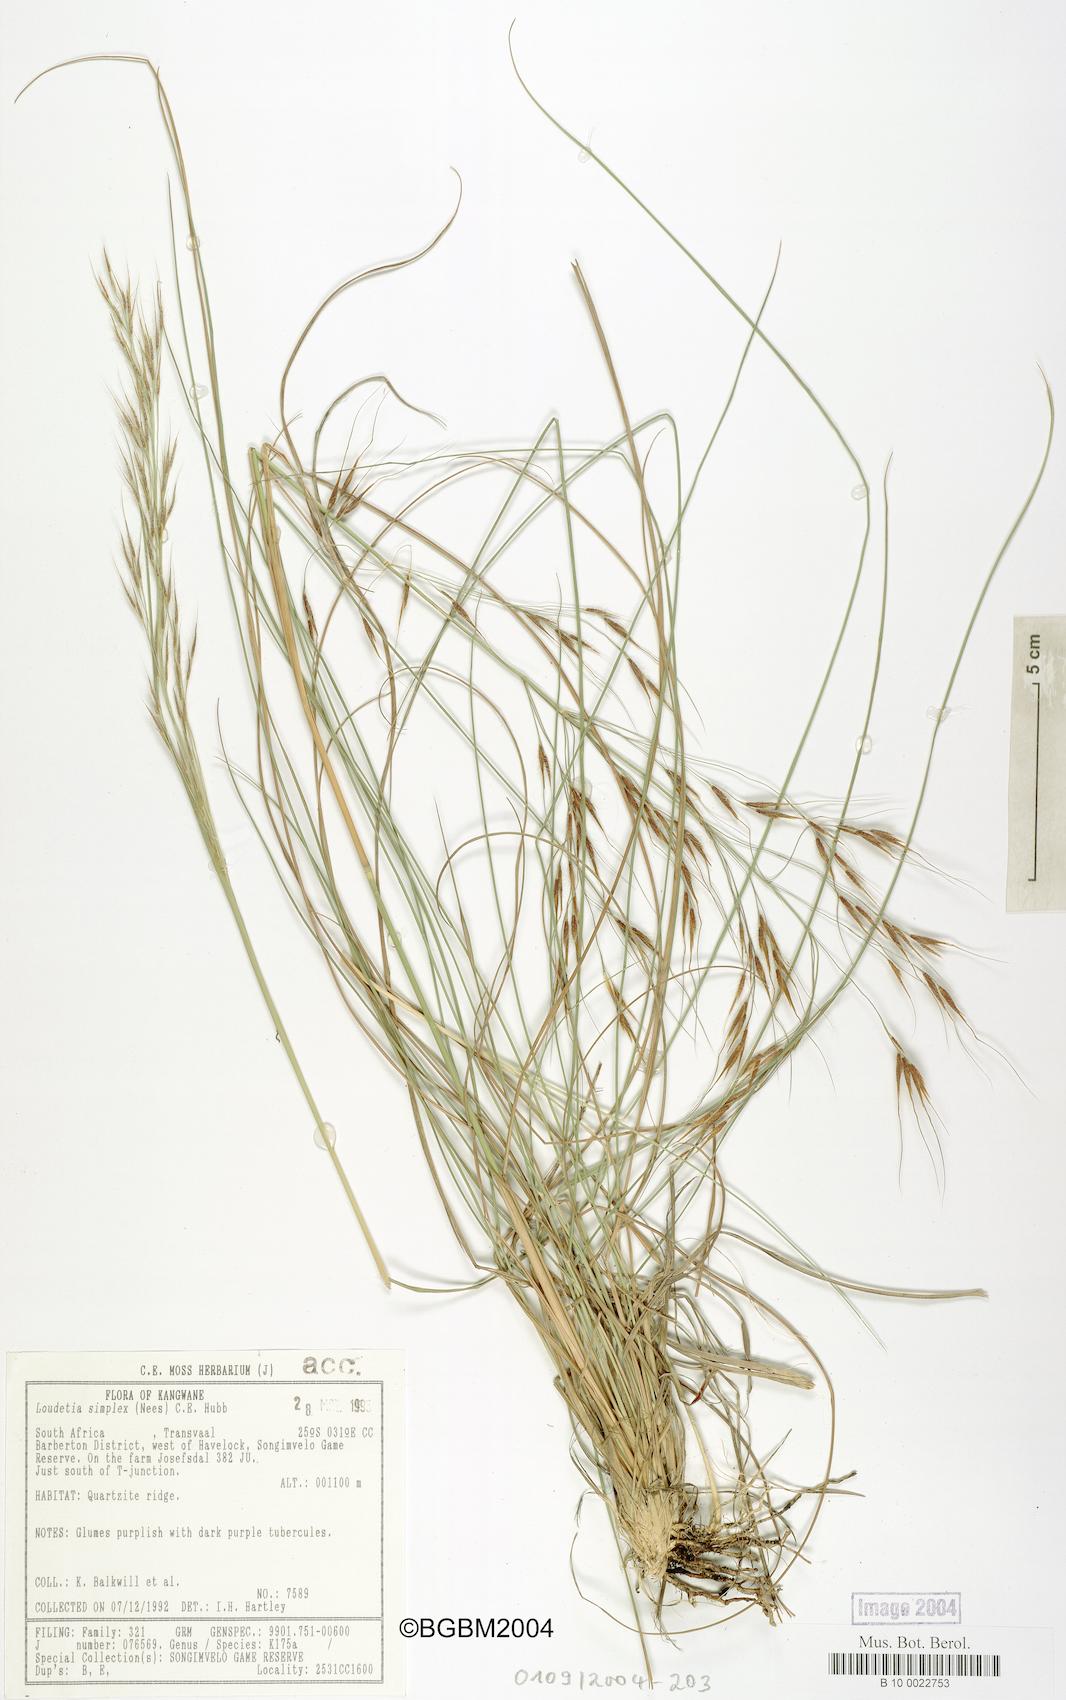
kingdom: Plantae
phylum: Tracheophyta
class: Liliopsida
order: Poales
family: Poaceae
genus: Loudetia
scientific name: Loudetia simplex
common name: Common russet grass
